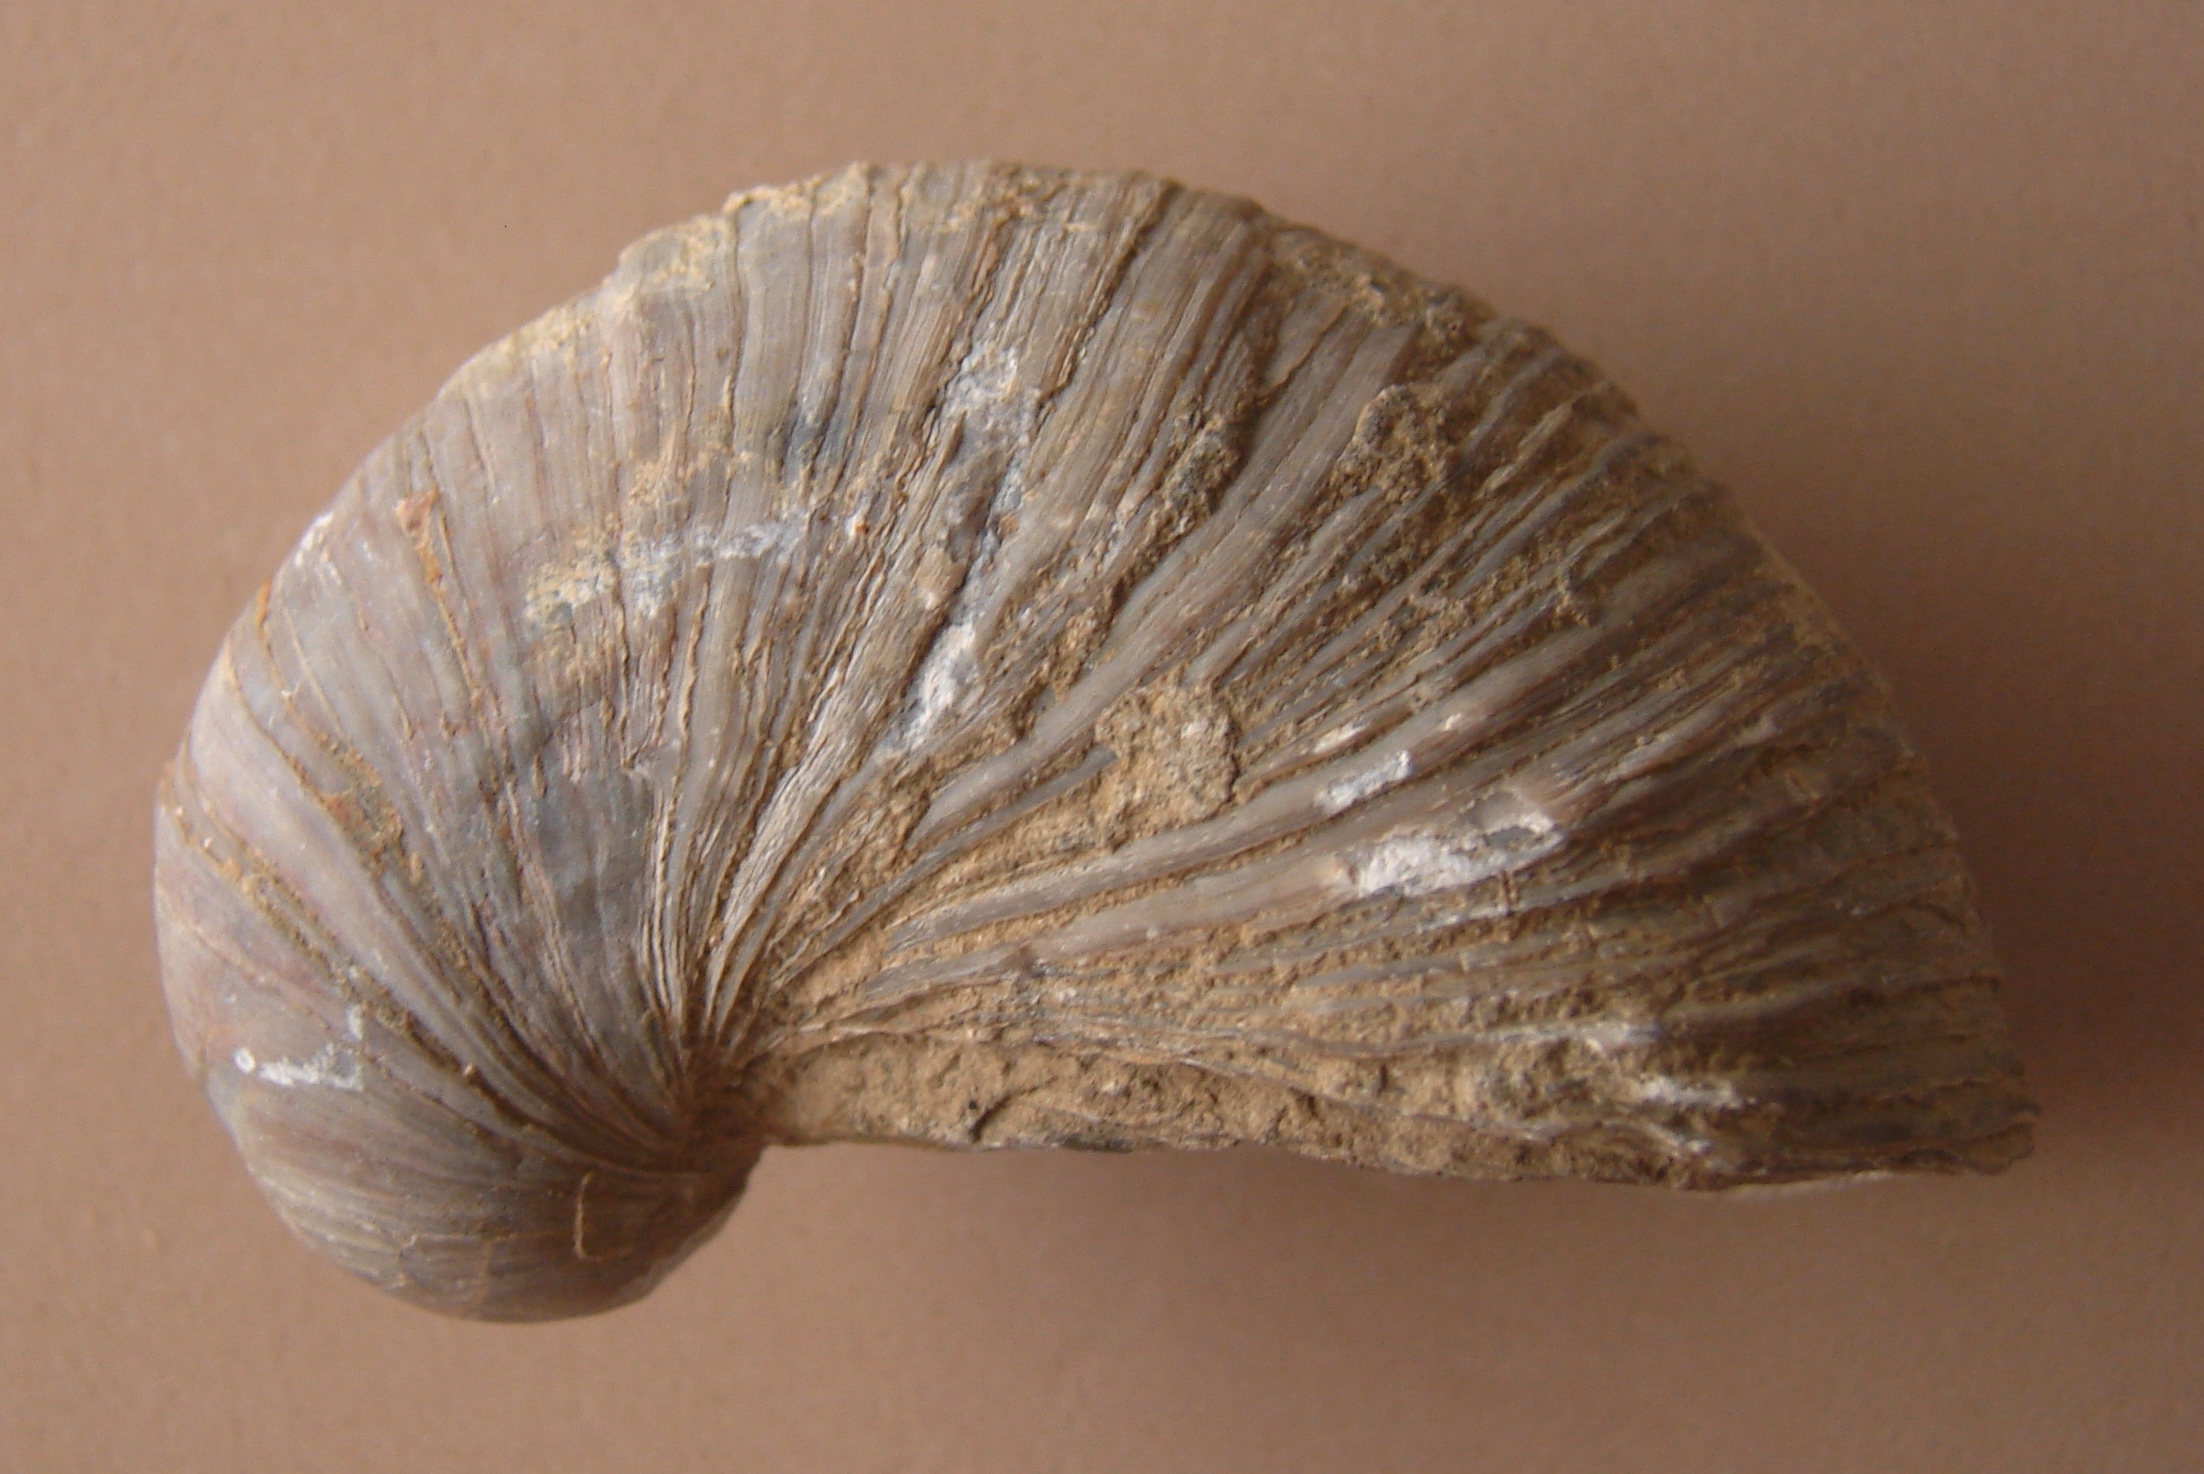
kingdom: Animalia
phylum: Mollusca
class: Bivalvia
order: Ostreida
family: Gryphaeidae
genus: Gryphaea
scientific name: Gryphaea arcuata
